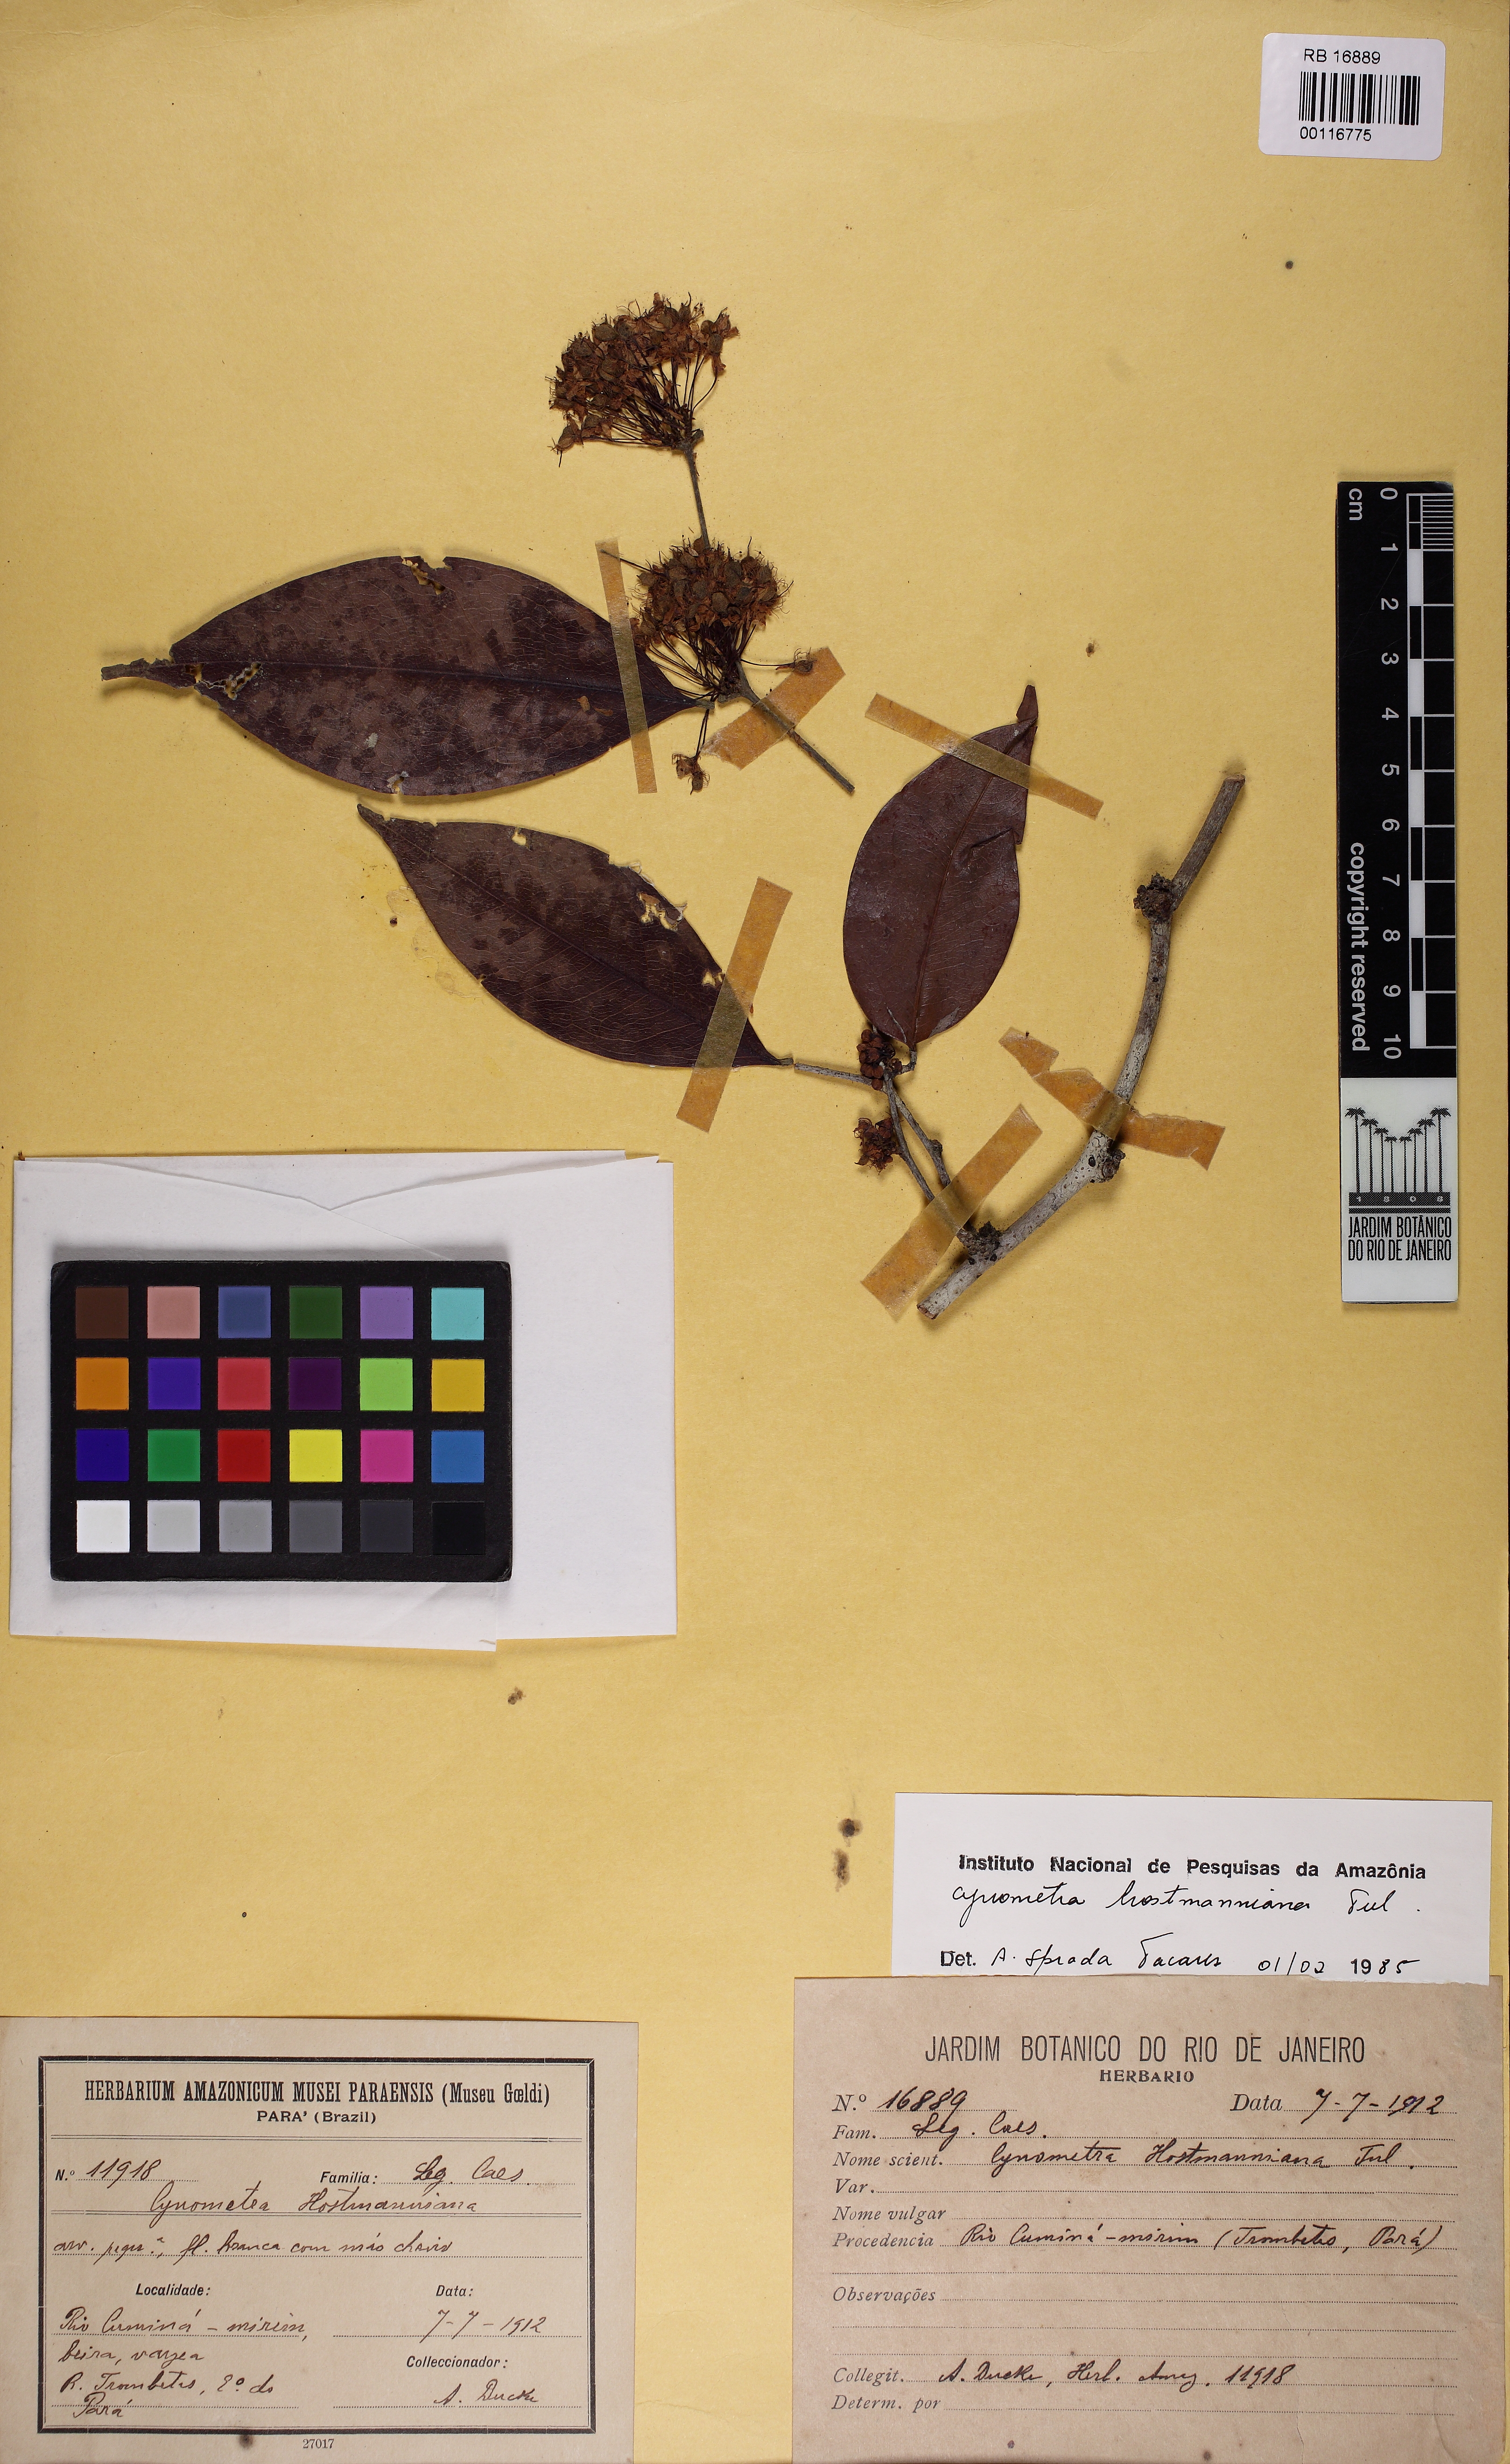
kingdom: Plantae
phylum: Tracheophyta
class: Magnoliopsida
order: Fabales
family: Fabaceae
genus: Cynometra
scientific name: Cynometra hostmanniana
